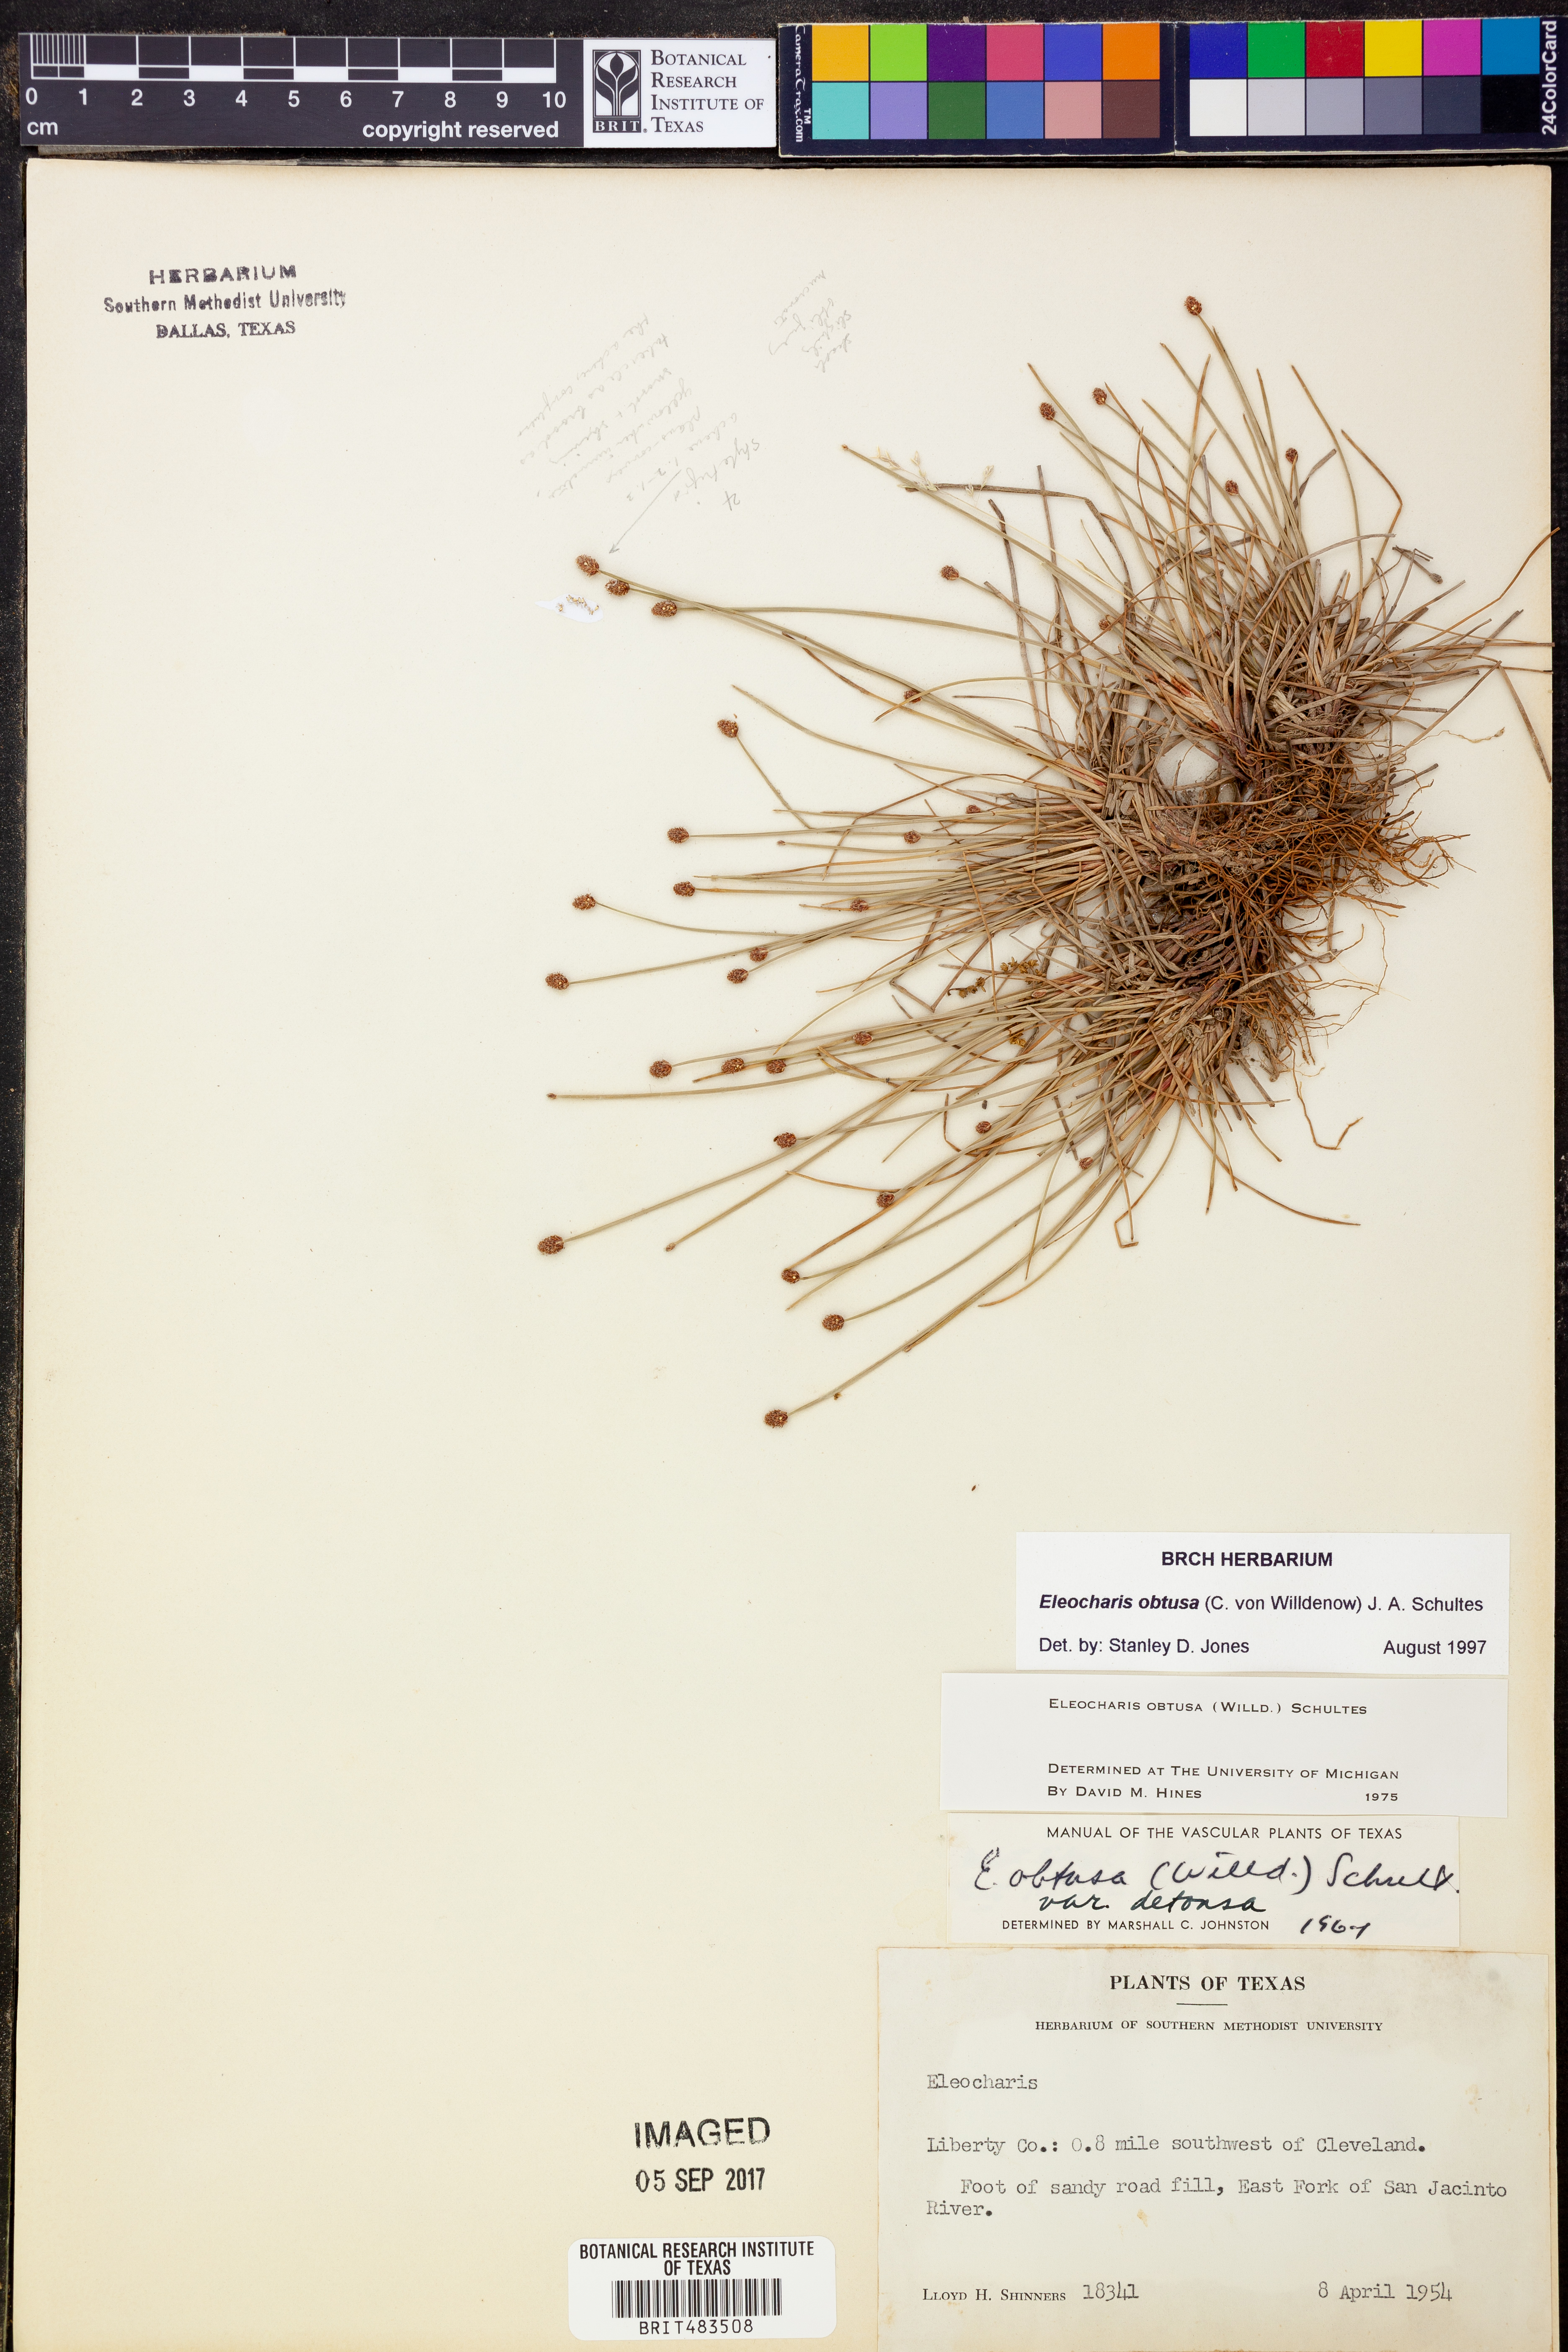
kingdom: Plantae
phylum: Tracheophyta
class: Liliopsida
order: Poales
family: Cyperaceae
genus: Eleocharis
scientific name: Eleocharis obtusa
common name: Blunt spikerush
